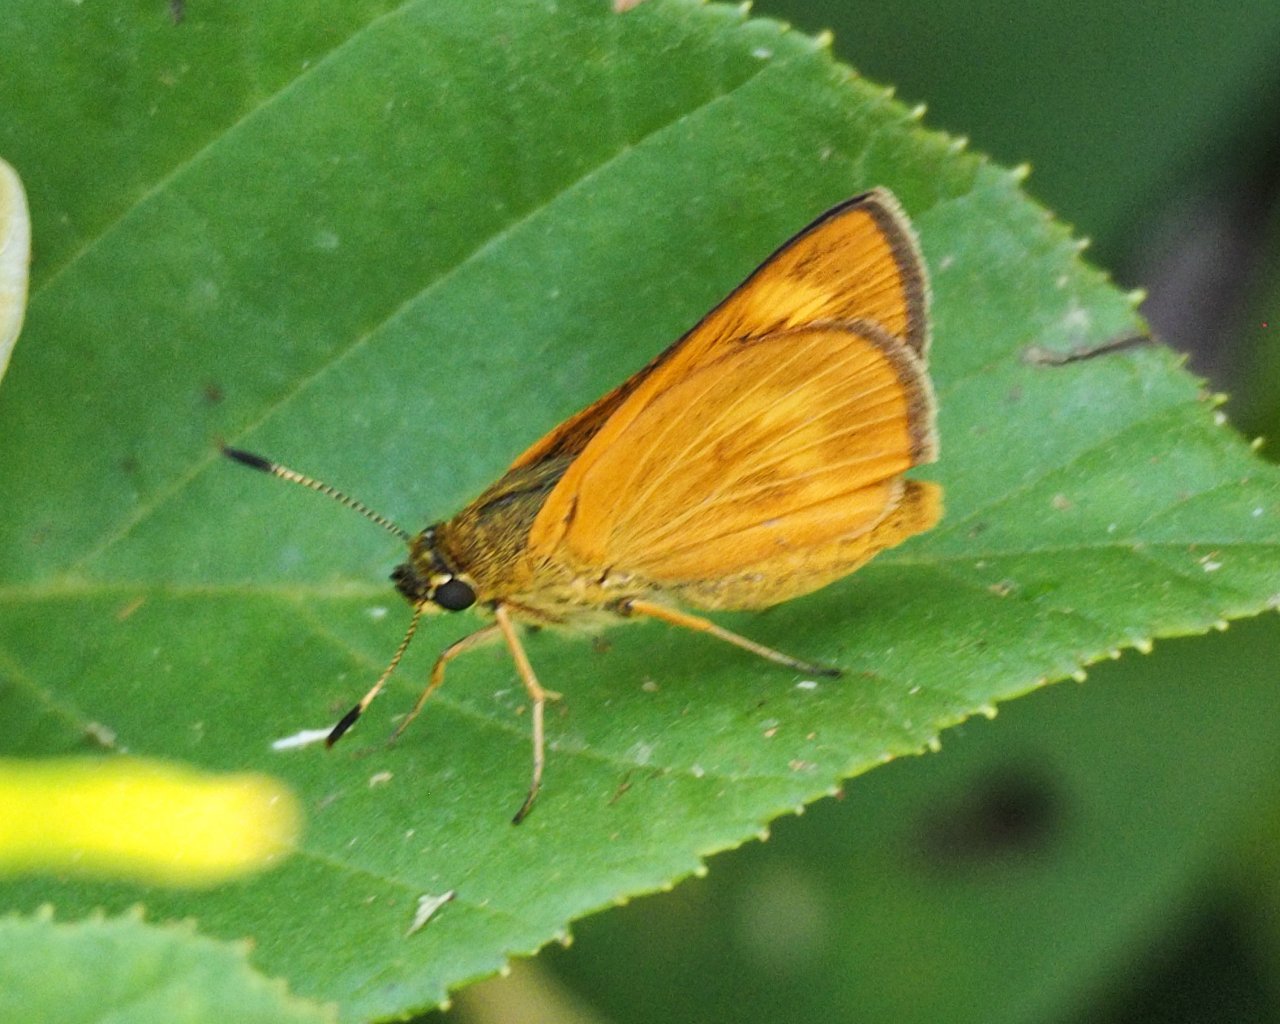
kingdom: Animalia
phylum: Arthropoda
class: Insecta
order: Lepidoptera
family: Hesperiidae
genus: Problema
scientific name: Problema byssus
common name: Byssus Skipper
